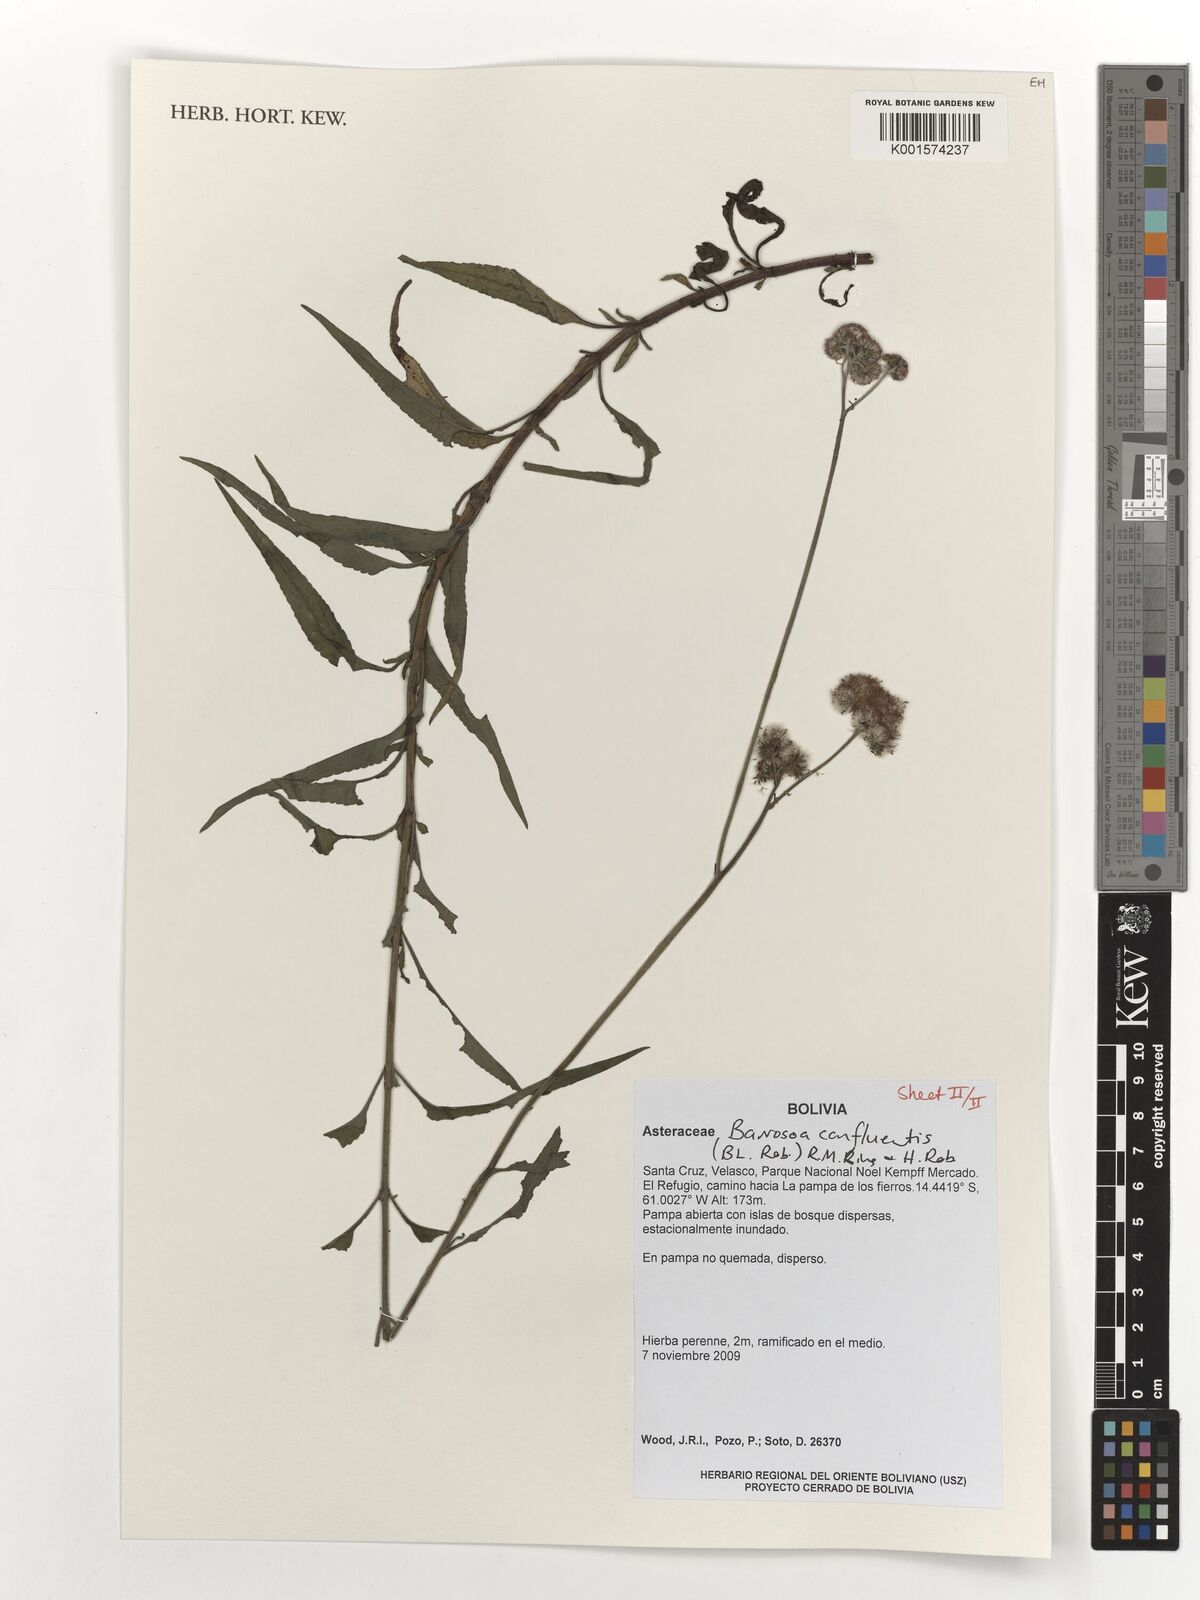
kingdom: Plantae
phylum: Tracheophyta
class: Magnoliopsida
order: Asterales
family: Asteraceae
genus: Barrosoa
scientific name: Barrosoa confluentis
